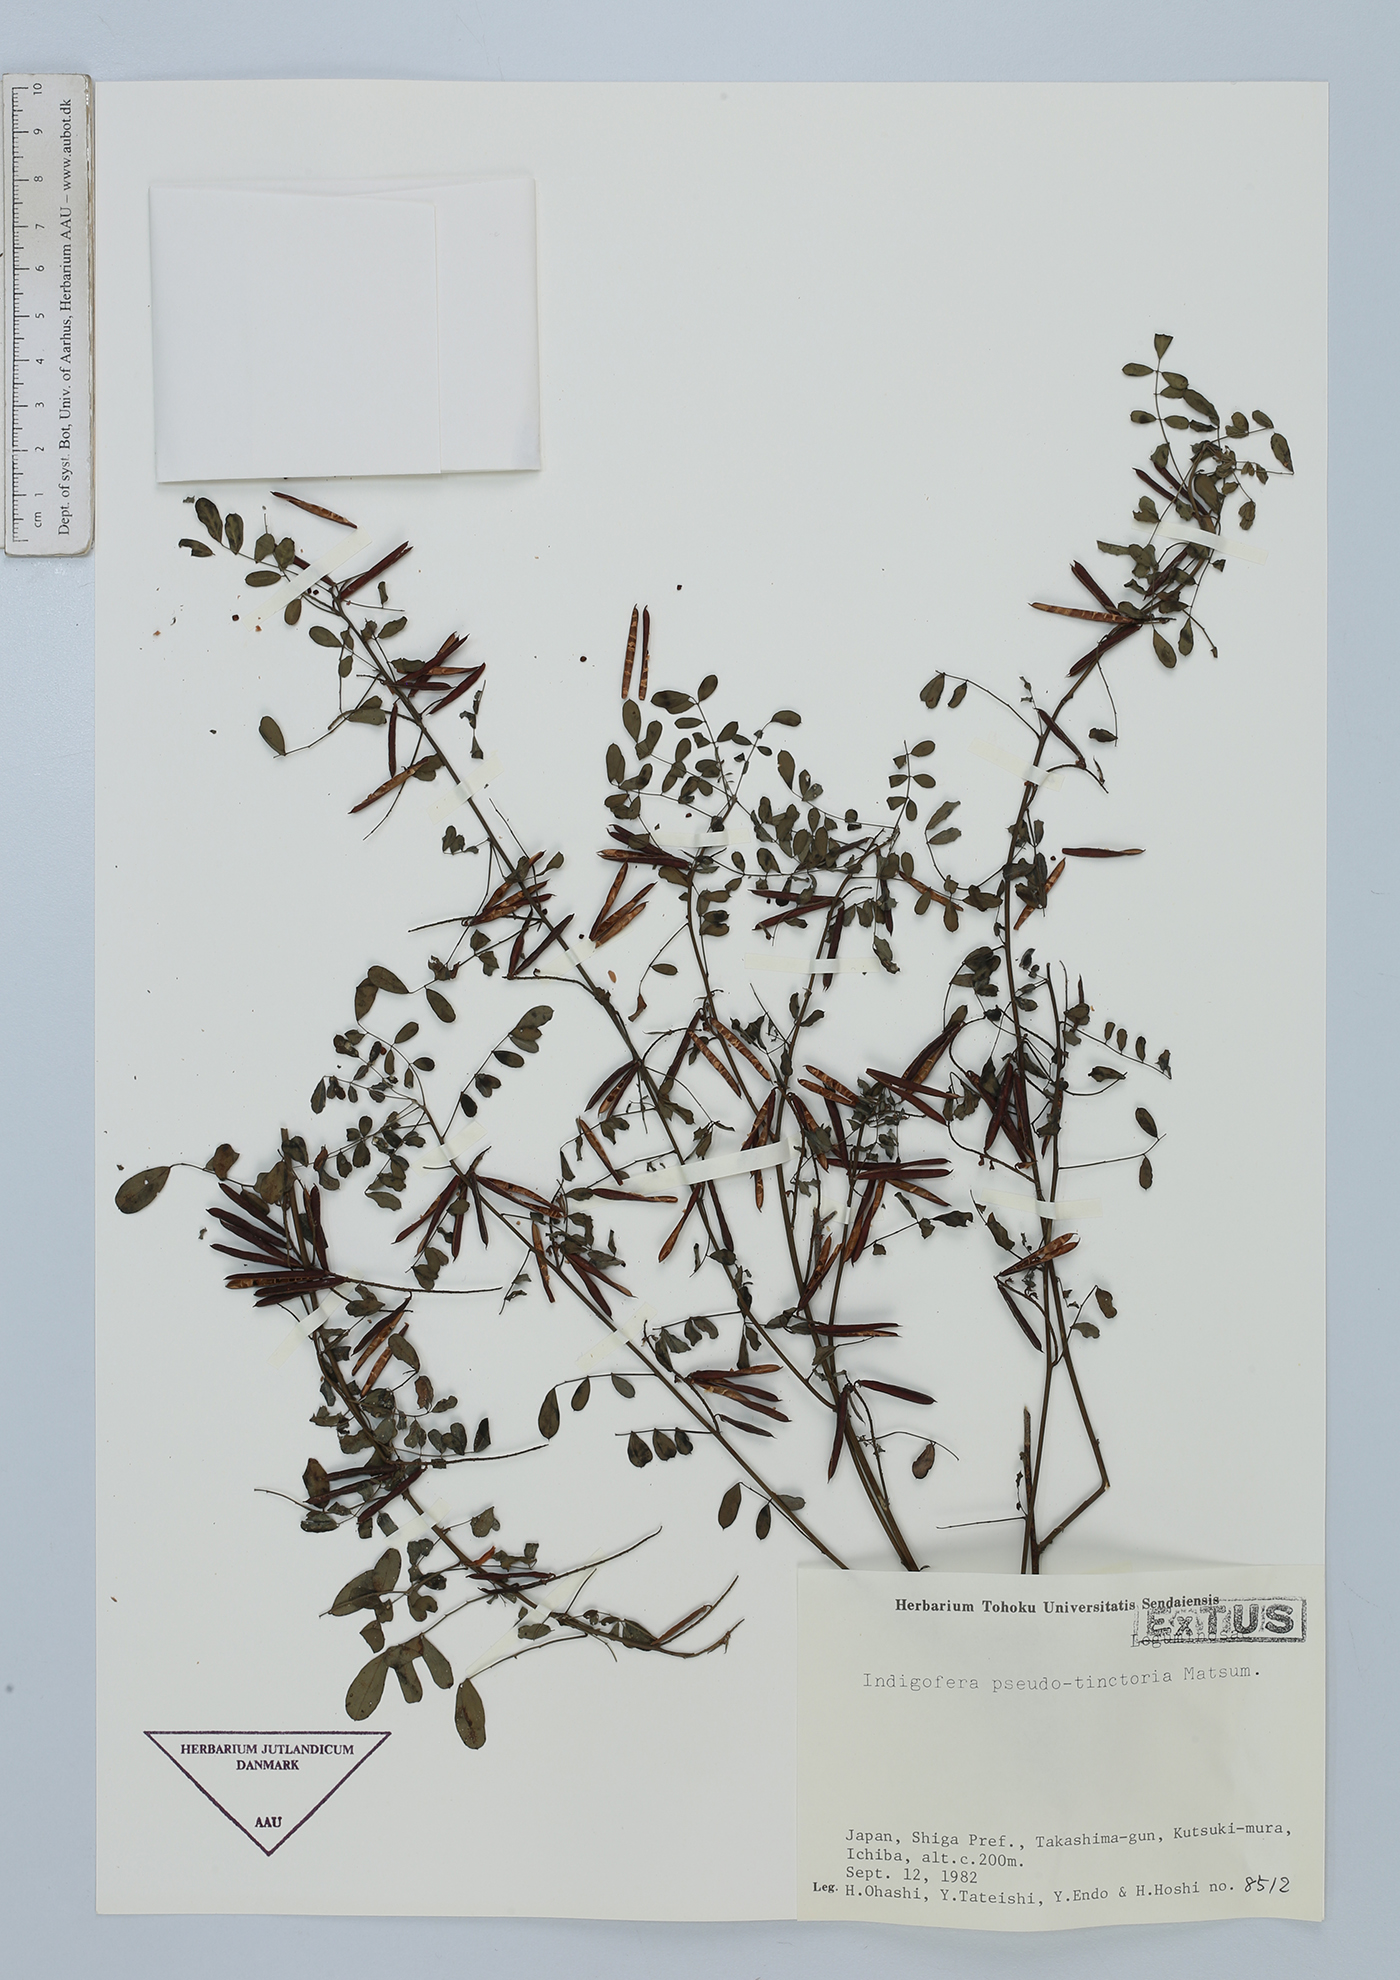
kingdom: Plantae
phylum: Tracheophyta
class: Magnoliopsida
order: Fabales
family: Fabaceae
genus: Indigofera
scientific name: Indigofera bungeana
